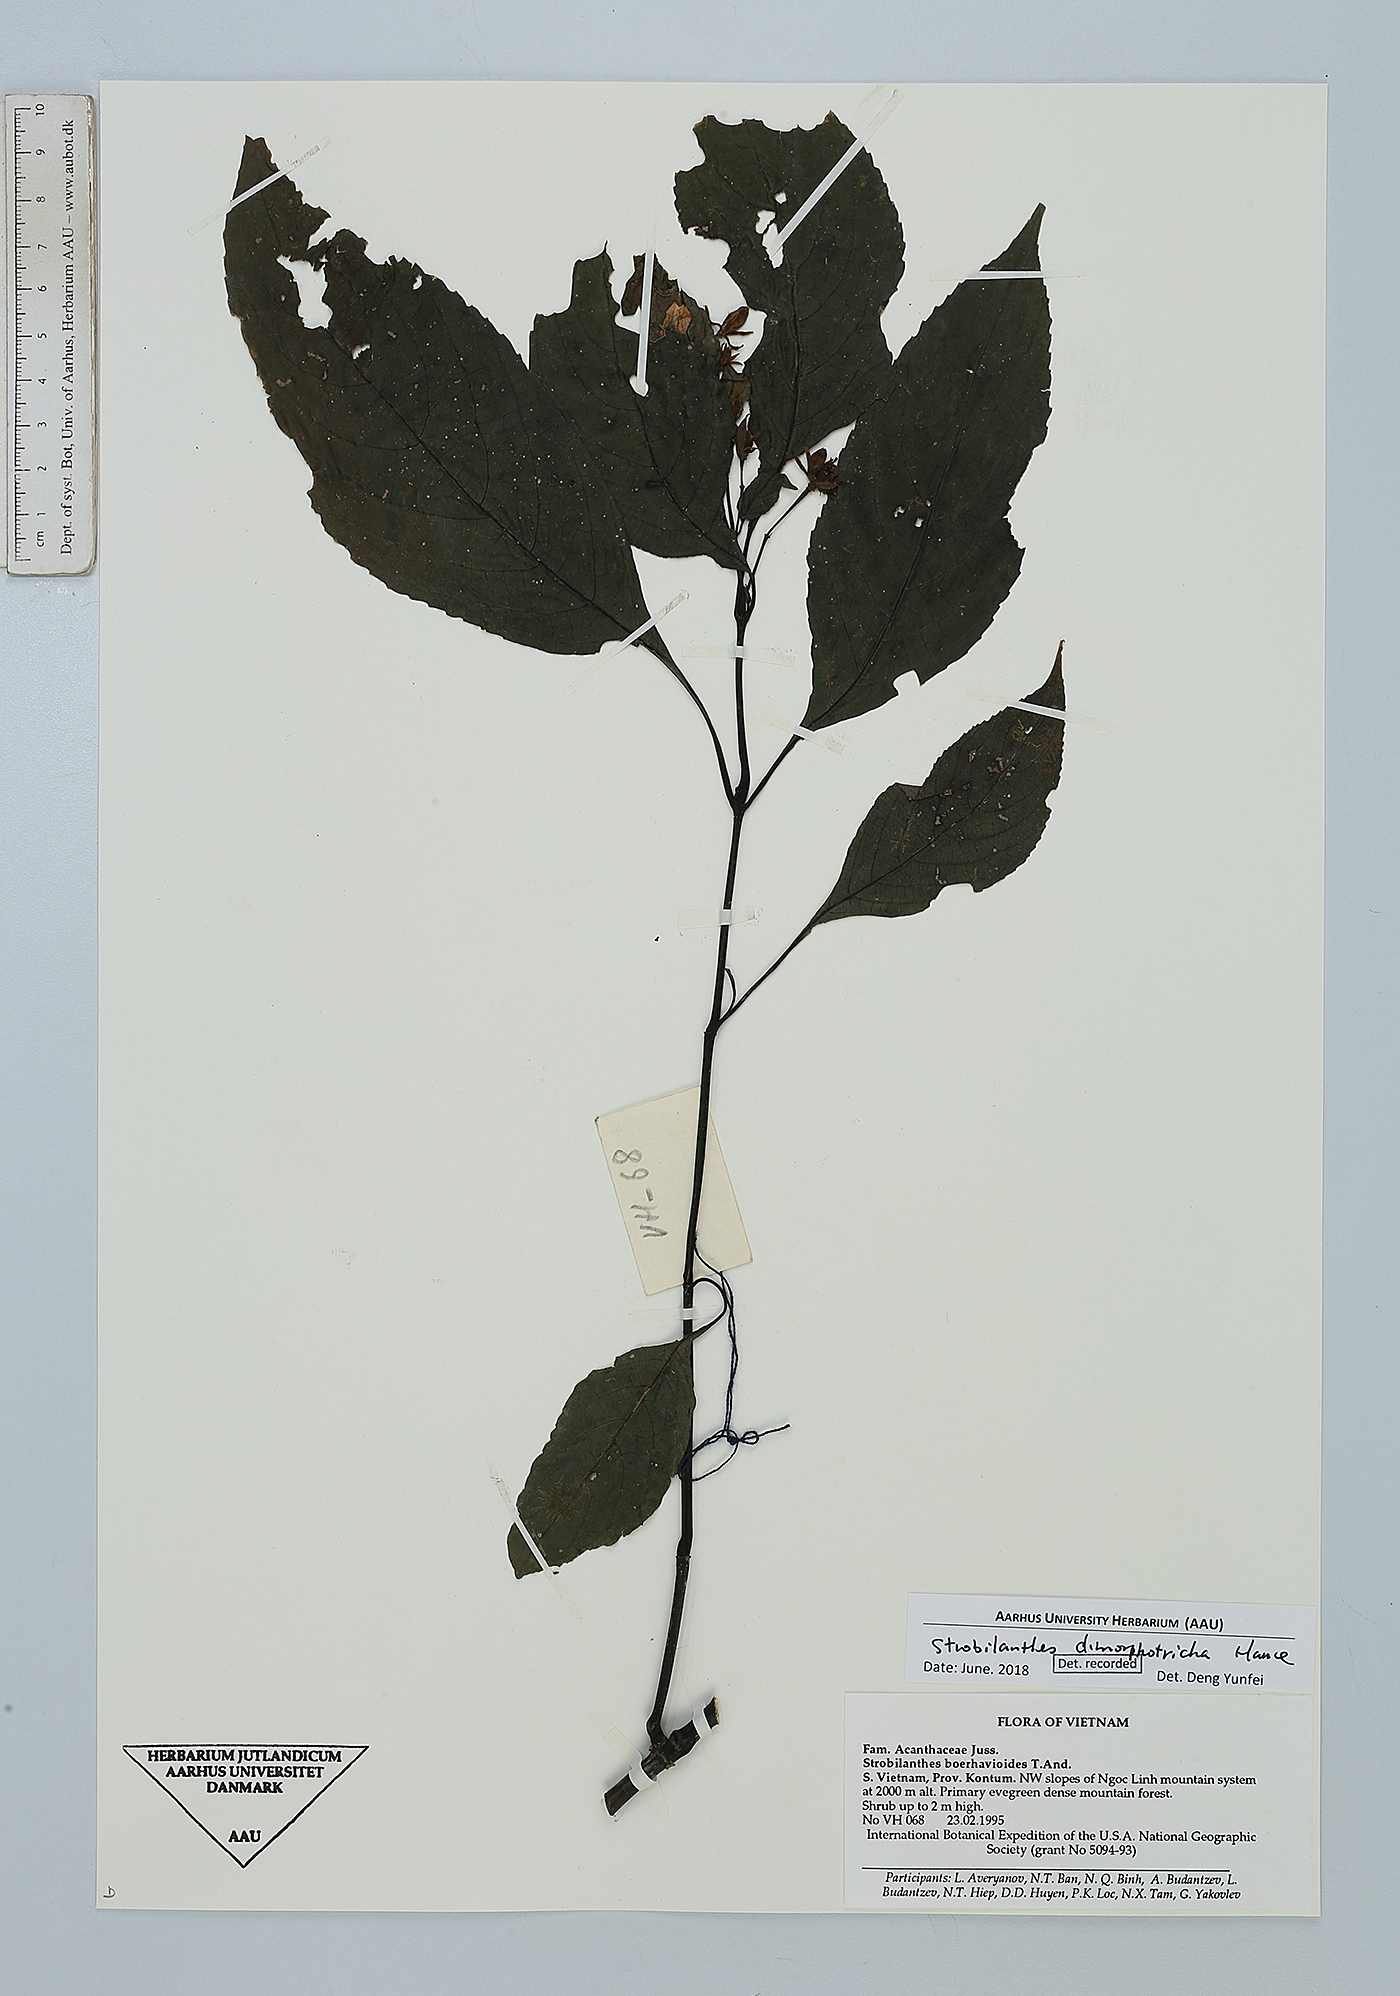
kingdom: Plantae
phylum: Tracheophyta
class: Magnoliopsida
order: Lamiales
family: Acanthaceae
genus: Strobilanthes
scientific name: Strobilanthes dimorphotricha
